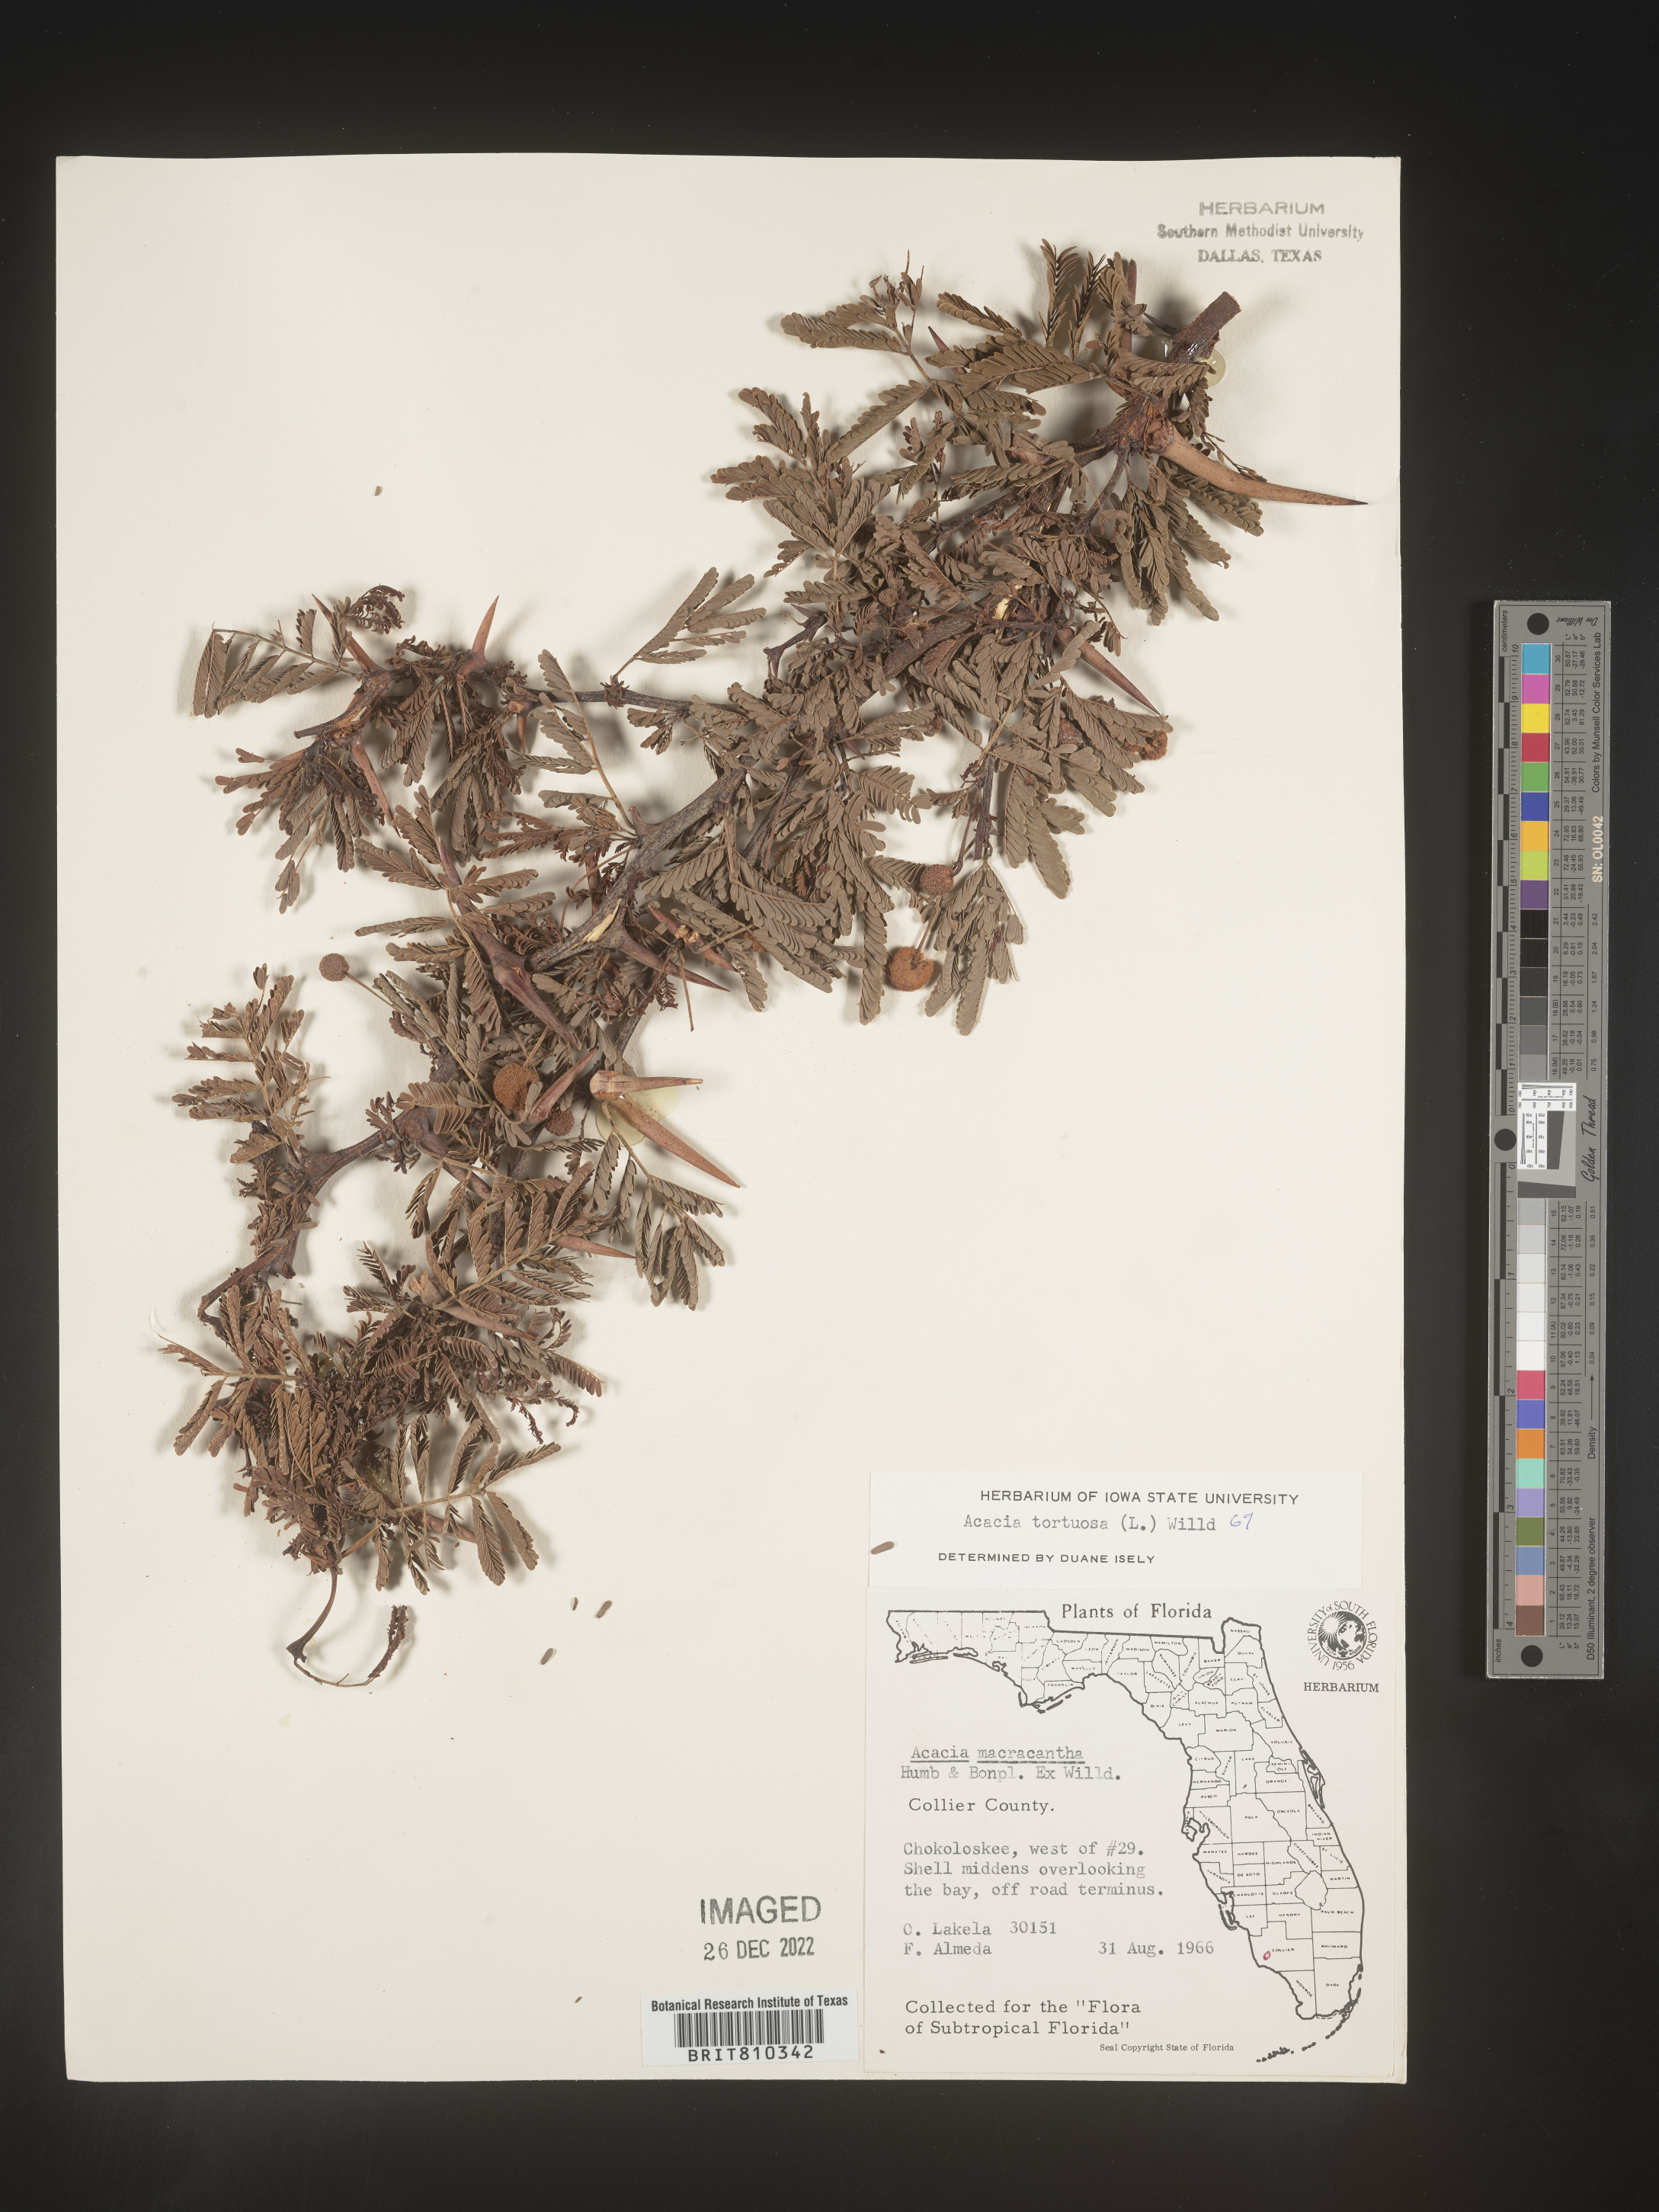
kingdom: Plantae
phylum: Tracheophyta
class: Magnoliopsida
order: Fabales
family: Fabaceae
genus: Acacia
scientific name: Acacia
